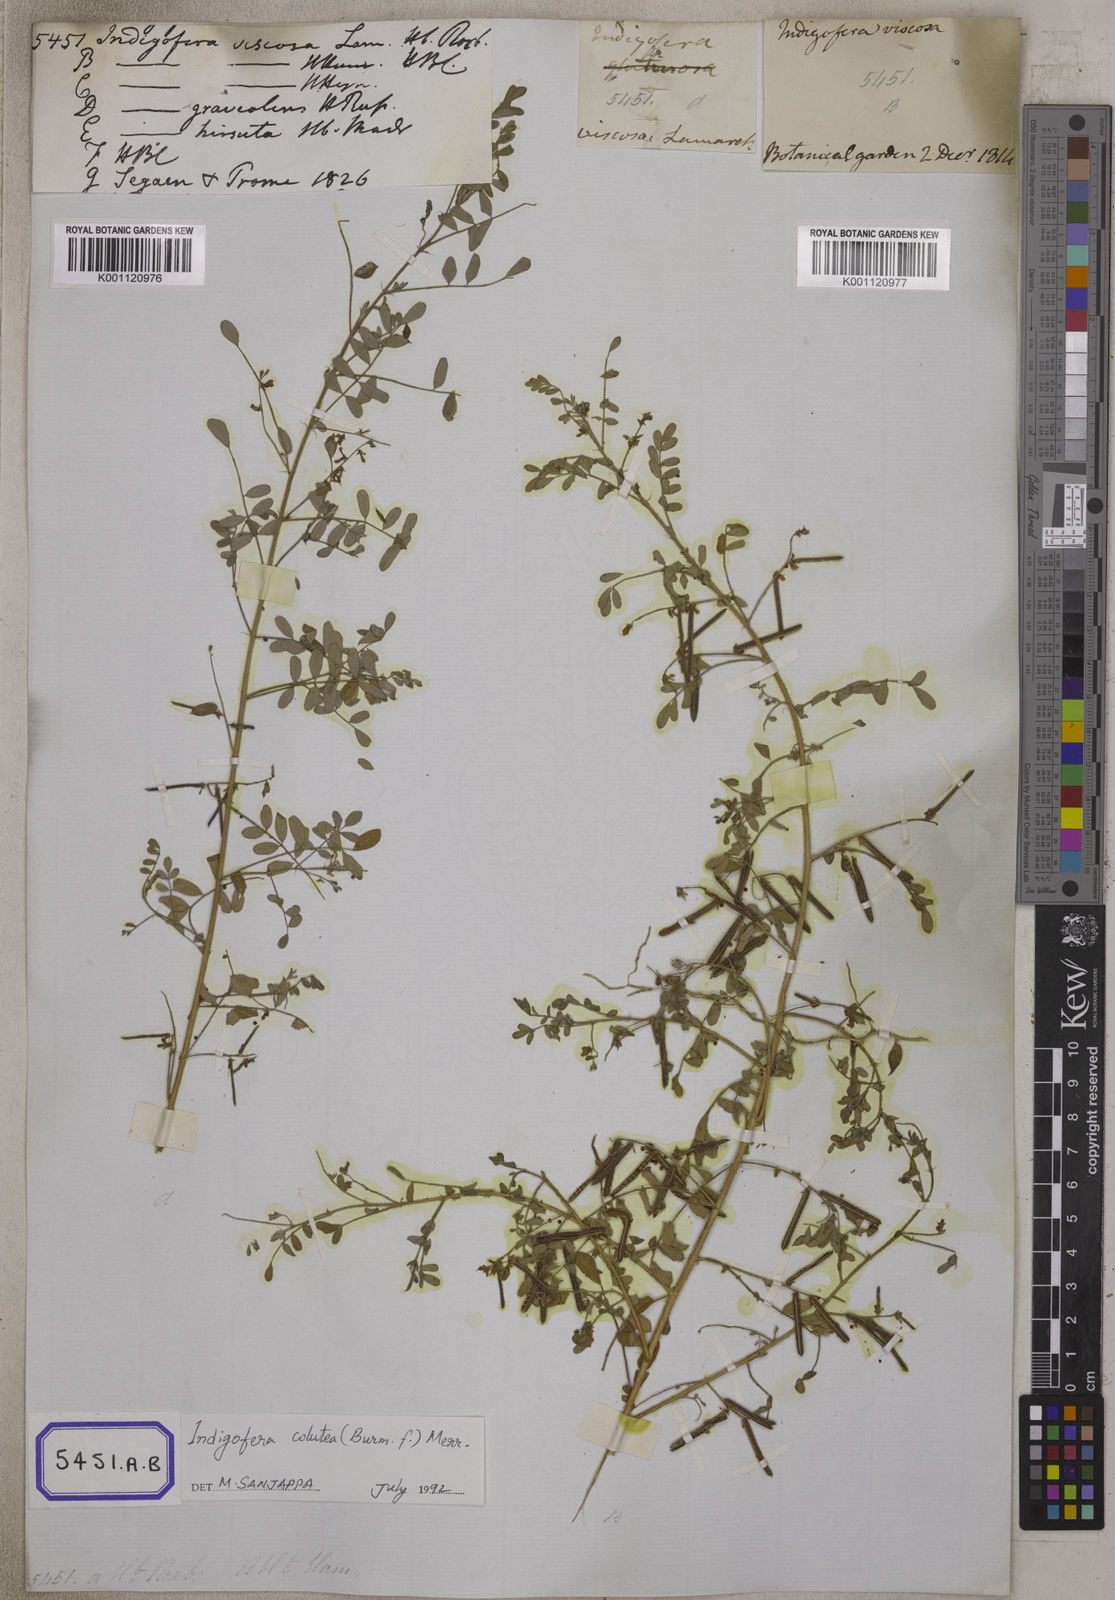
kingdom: Plantae
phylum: Tracheophyta
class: Magnoliopsida
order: Fabales
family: Fabaceae
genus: Indigofera
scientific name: Indigofera colutea
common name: Rusty indigo
